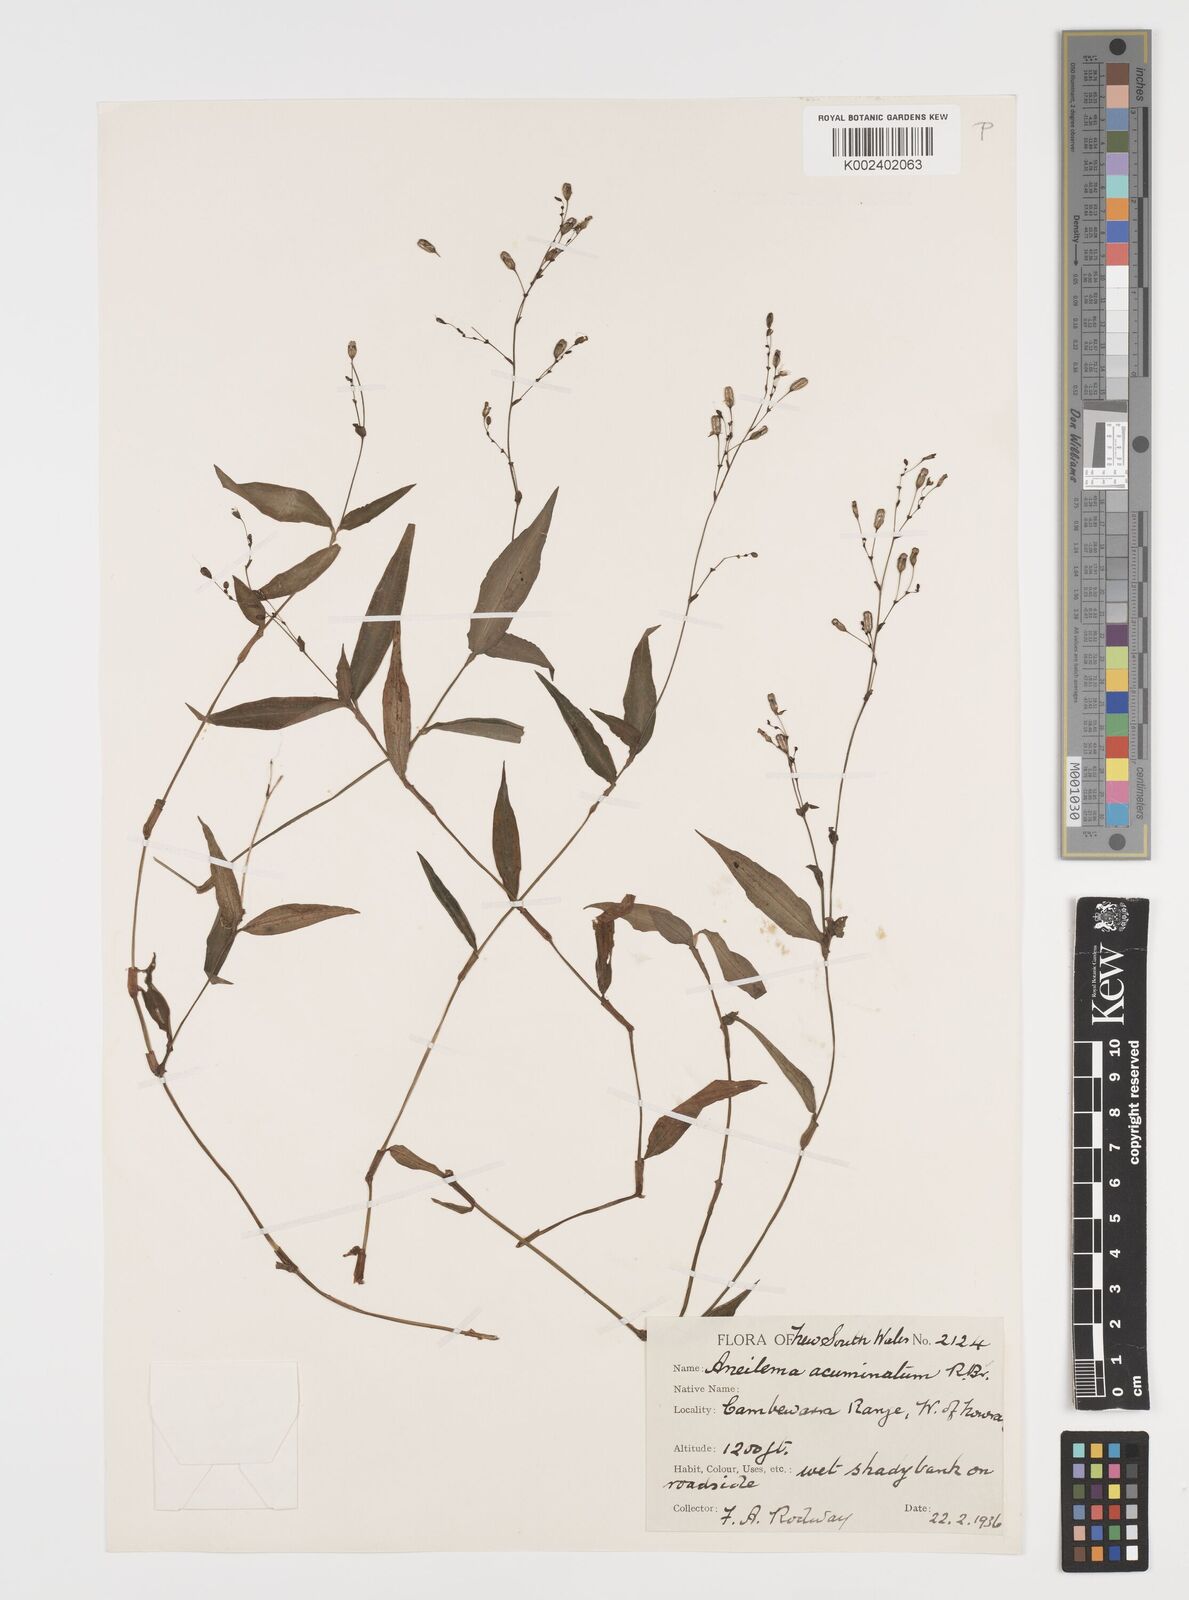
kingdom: Plantae
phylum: Tracheophyta
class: Liliopsida
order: Commelinales
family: Commelinaceae
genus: Aneilema
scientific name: Aneilema acuminatum
